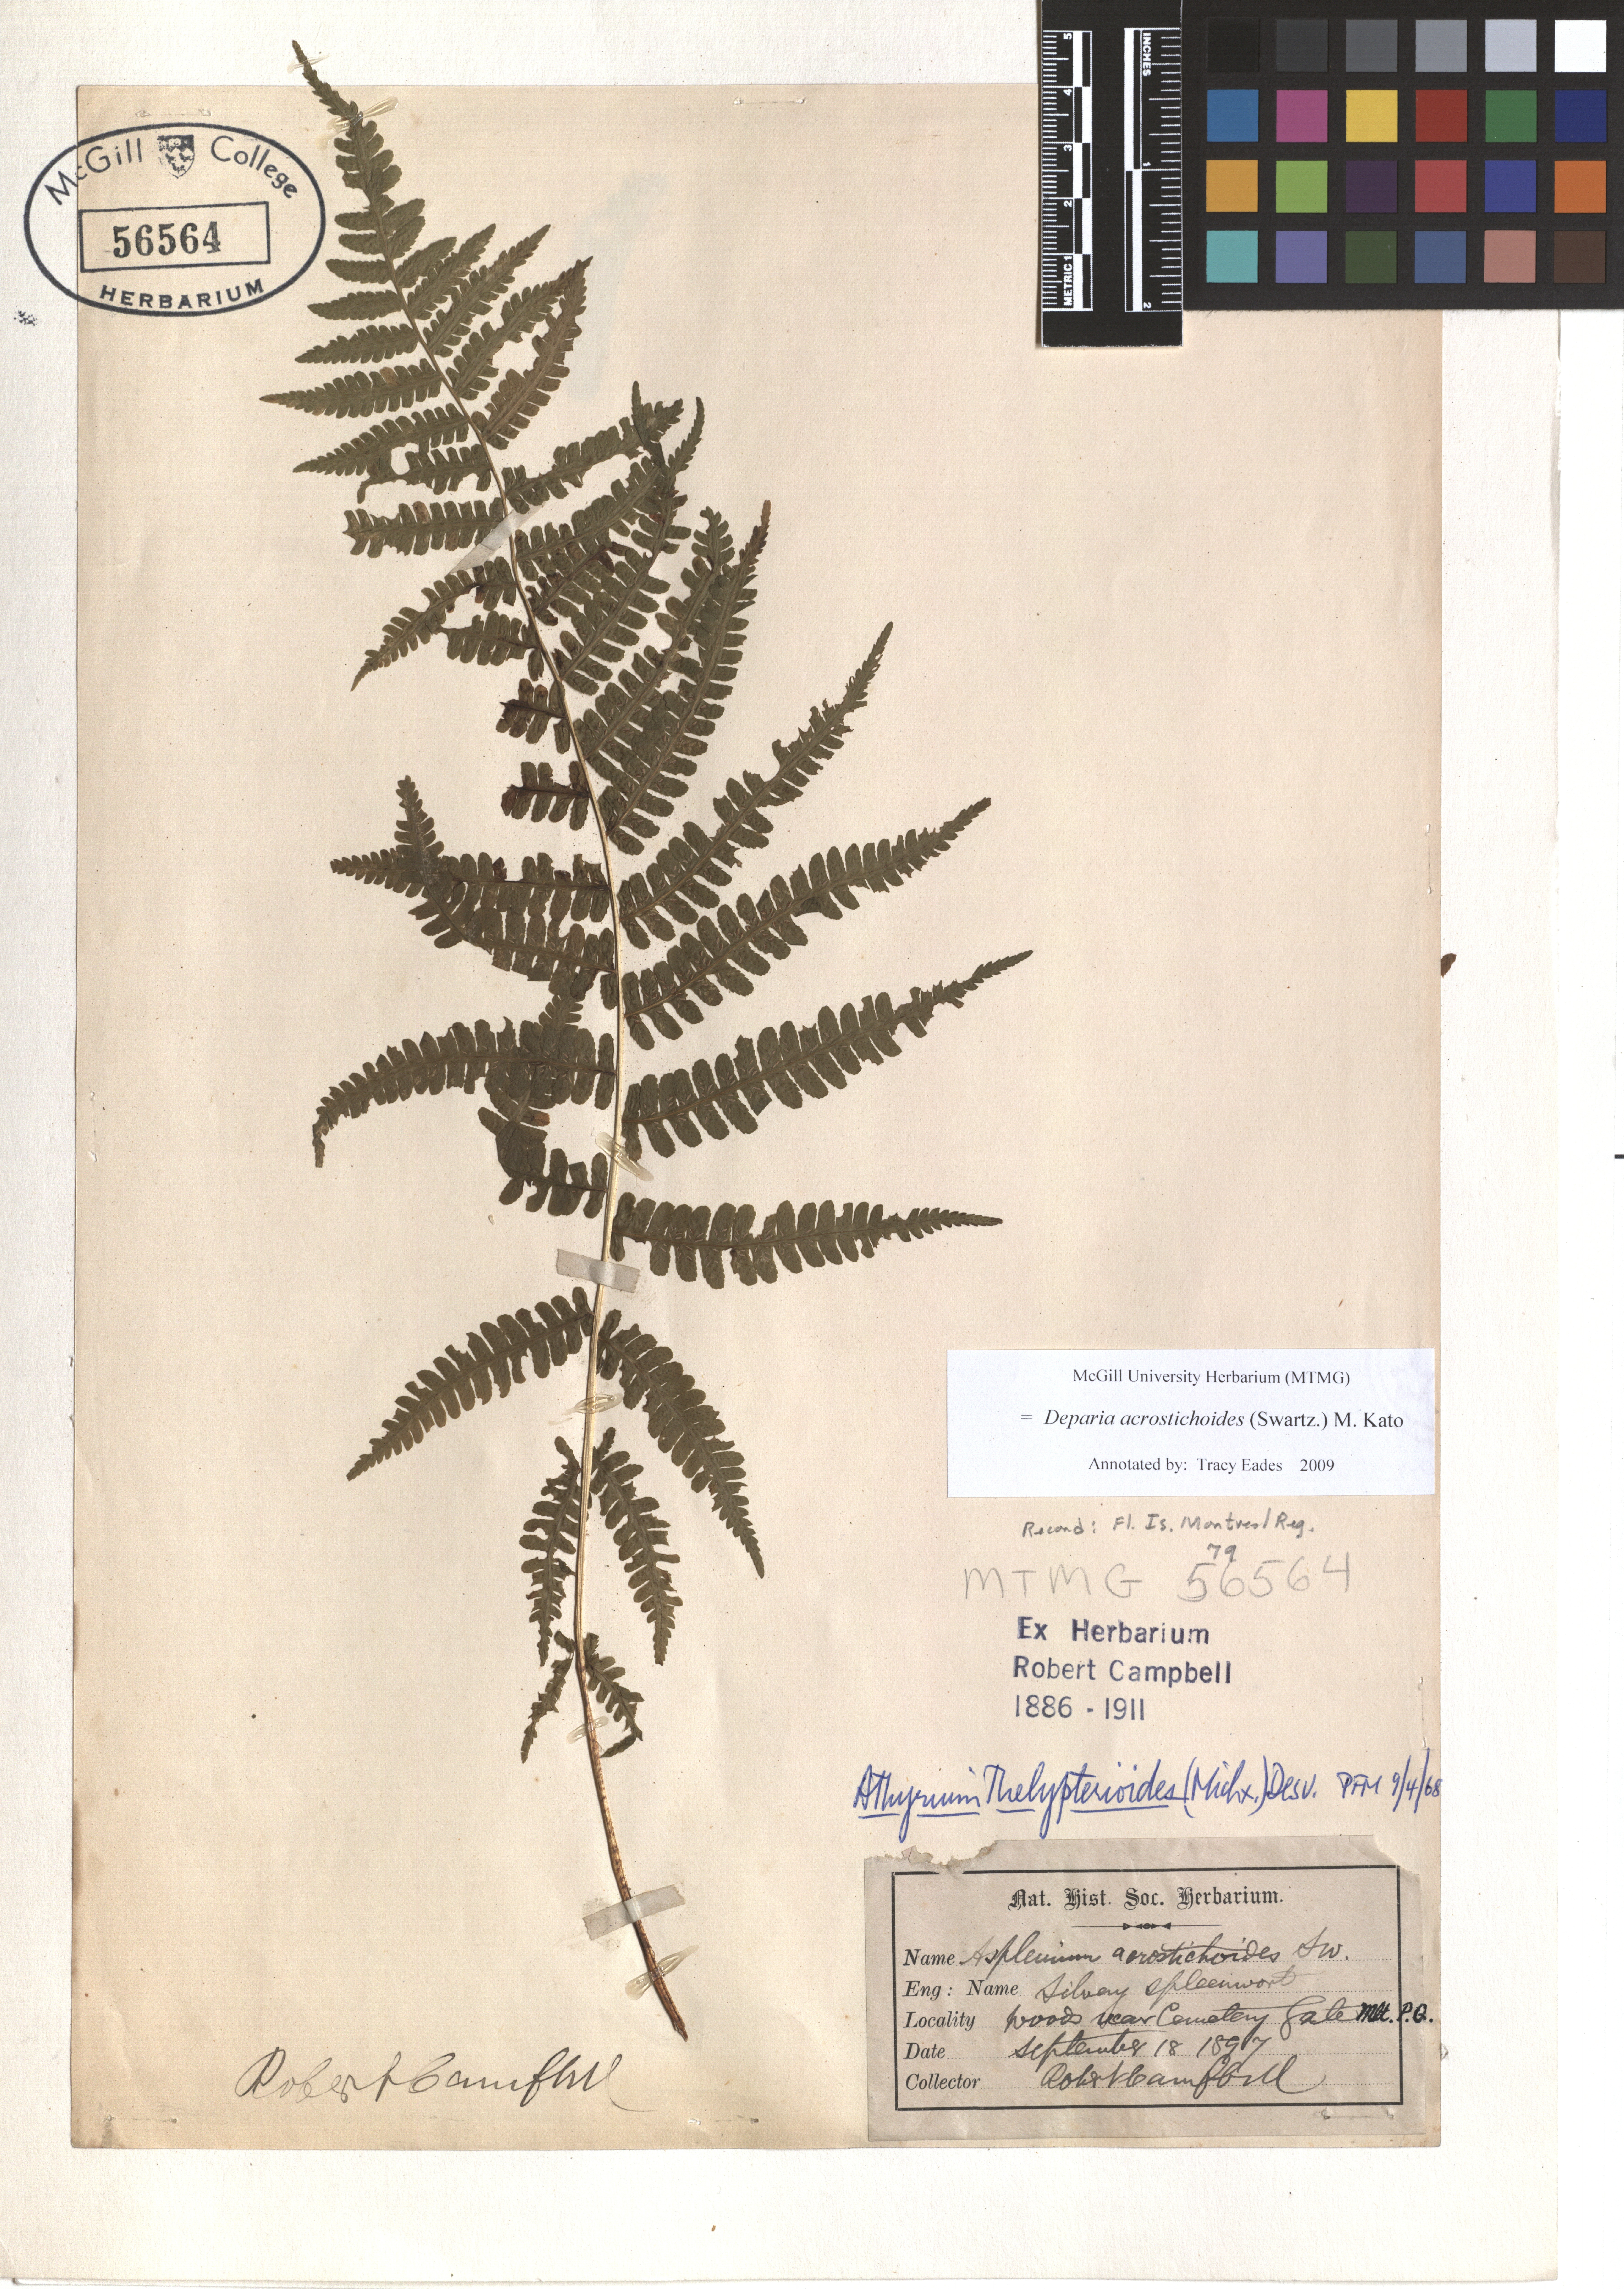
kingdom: Plantae
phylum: Tracheophyta
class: Polypodiopsida
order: Polypodiales
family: Athyriaceae
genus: Deparia
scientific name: Deparia acrostichoides
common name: Silver false spleenwort
